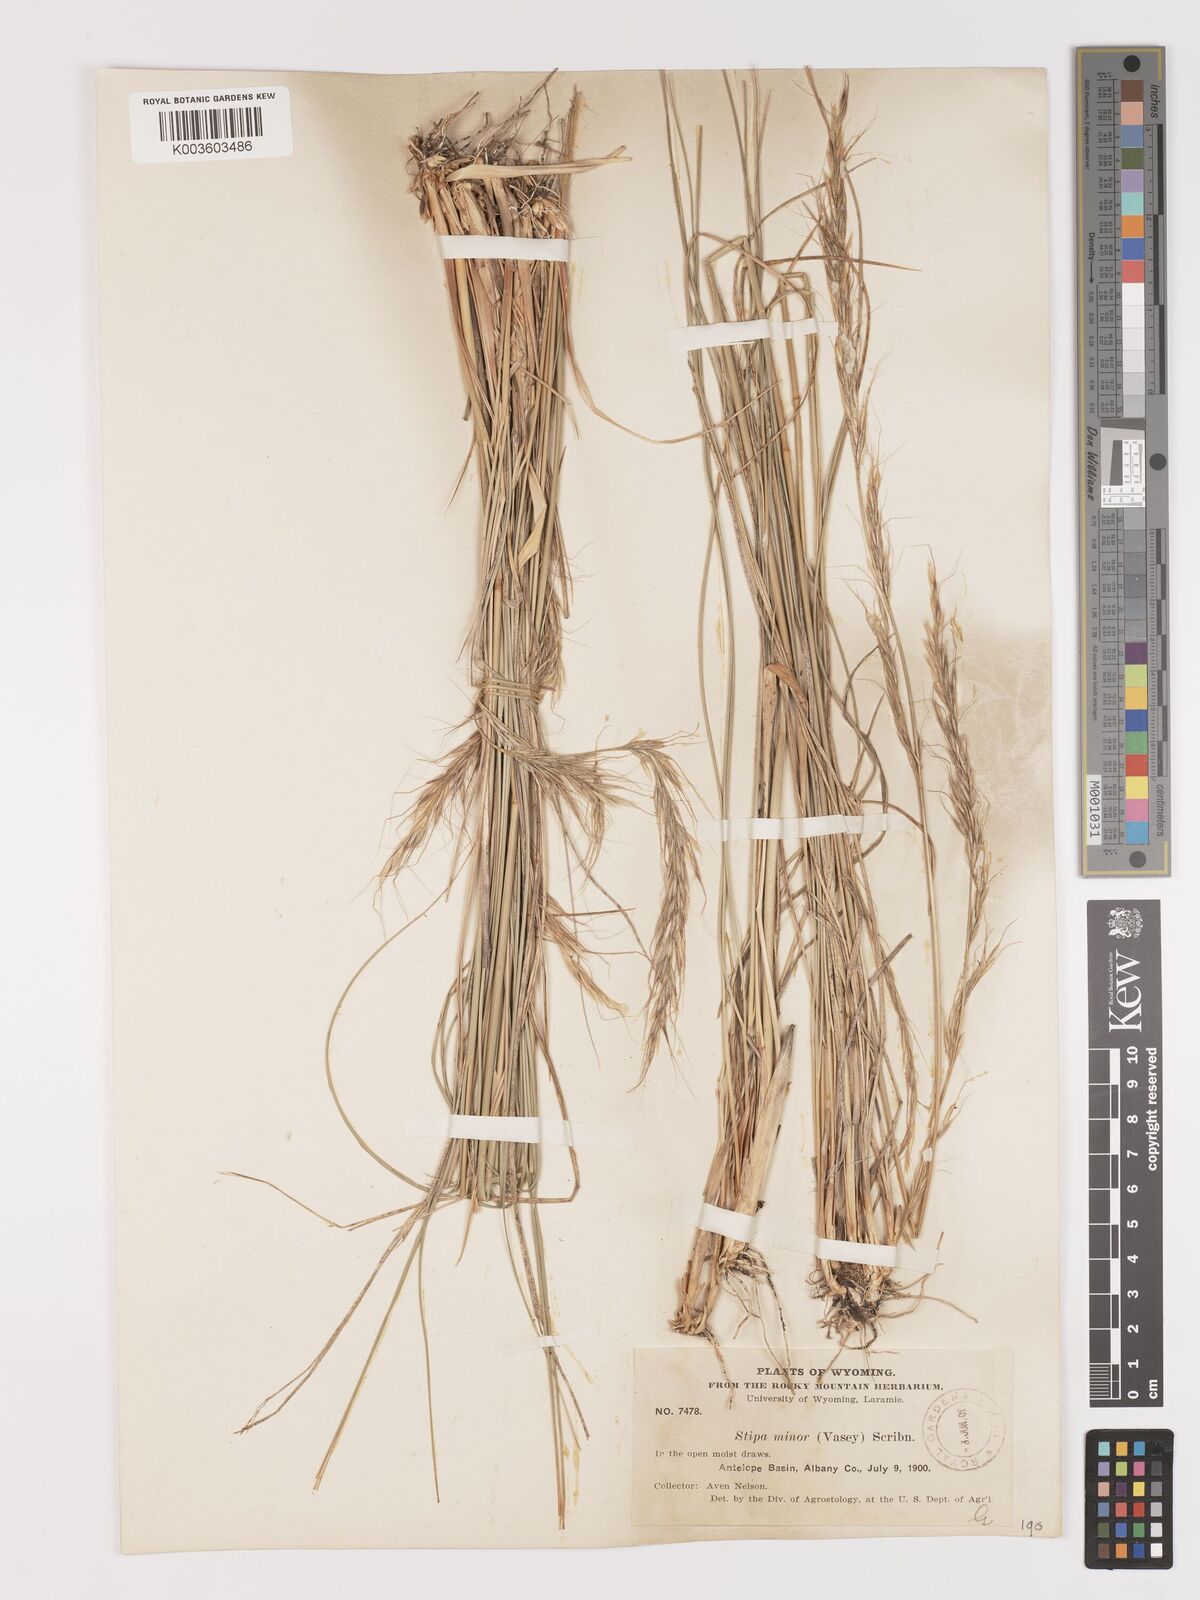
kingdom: Plantae
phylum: Tracheophyta
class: Liliopsida
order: Poales
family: Poaceae
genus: Eriocoma
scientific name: Eriocoma nelsonii
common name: Nelson's needlegrass
